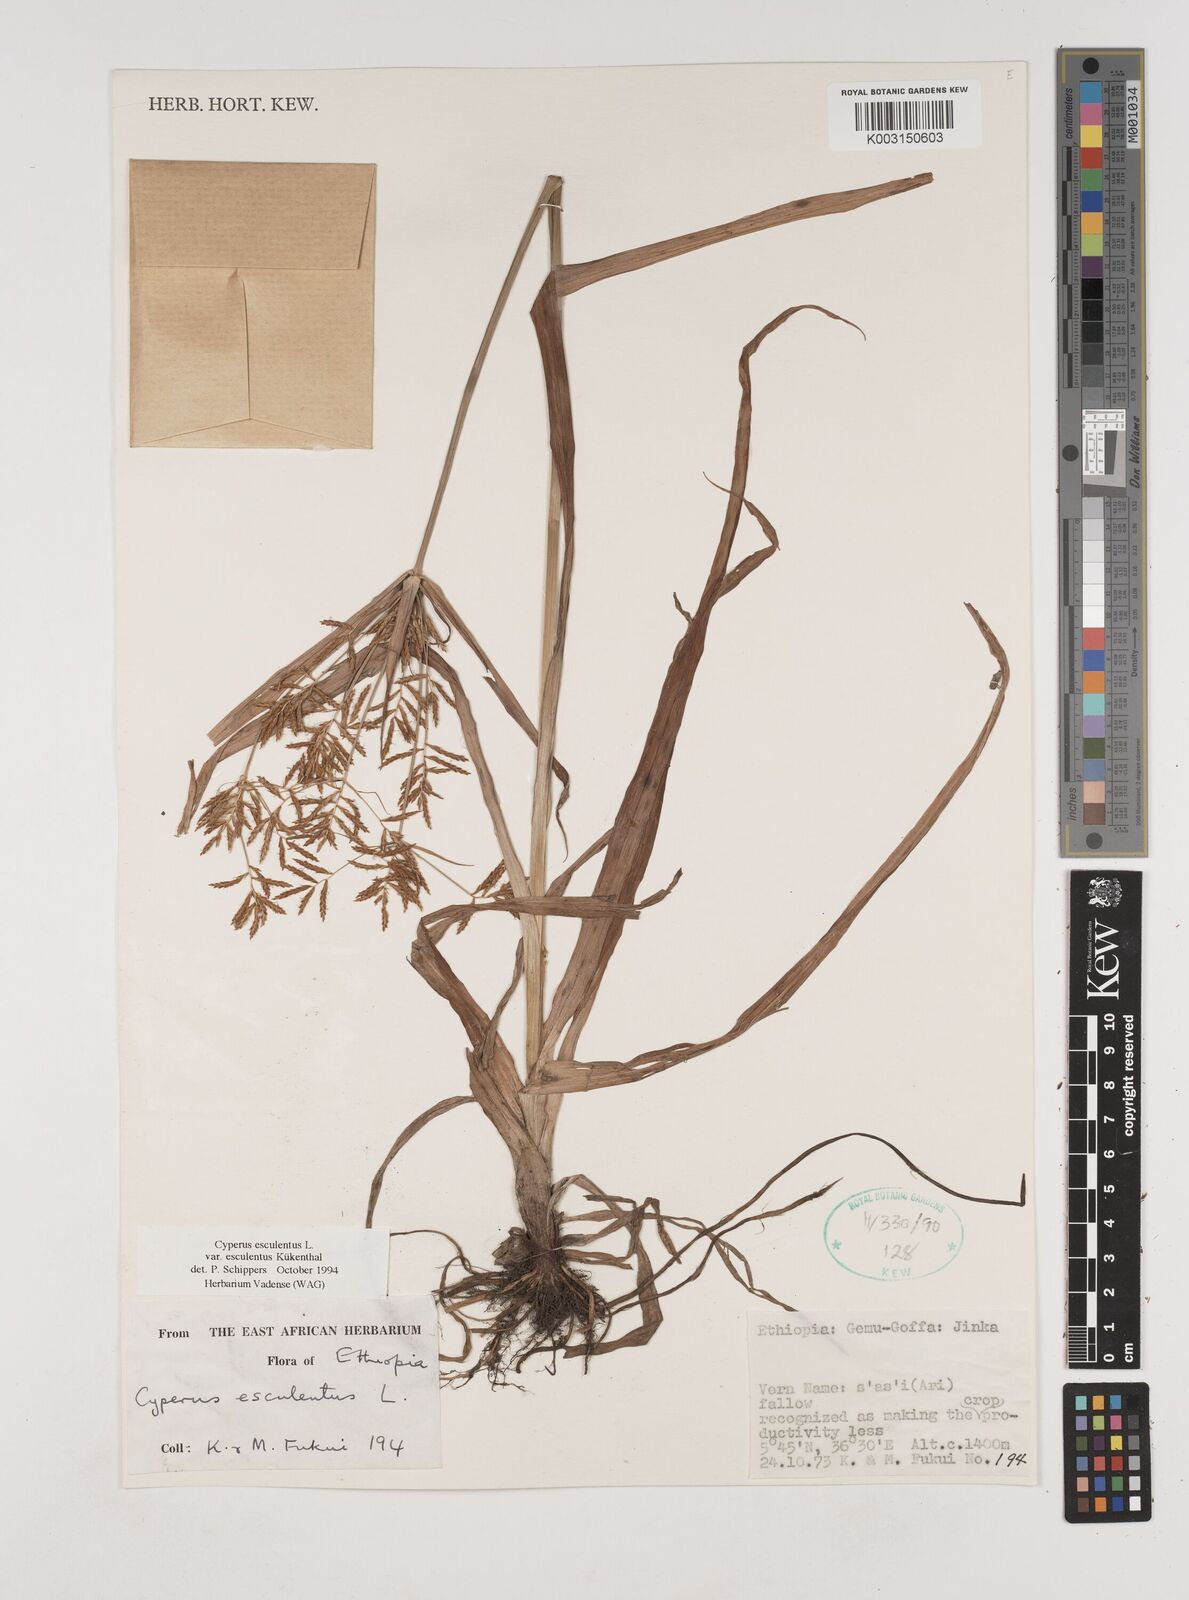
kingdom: Plantae
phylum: Tracheophyta
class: Liliopsida
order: Poales
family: Cyperaceae
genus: Cyperus
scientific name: Cyperus esculentus
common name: Yellow nutsedge
